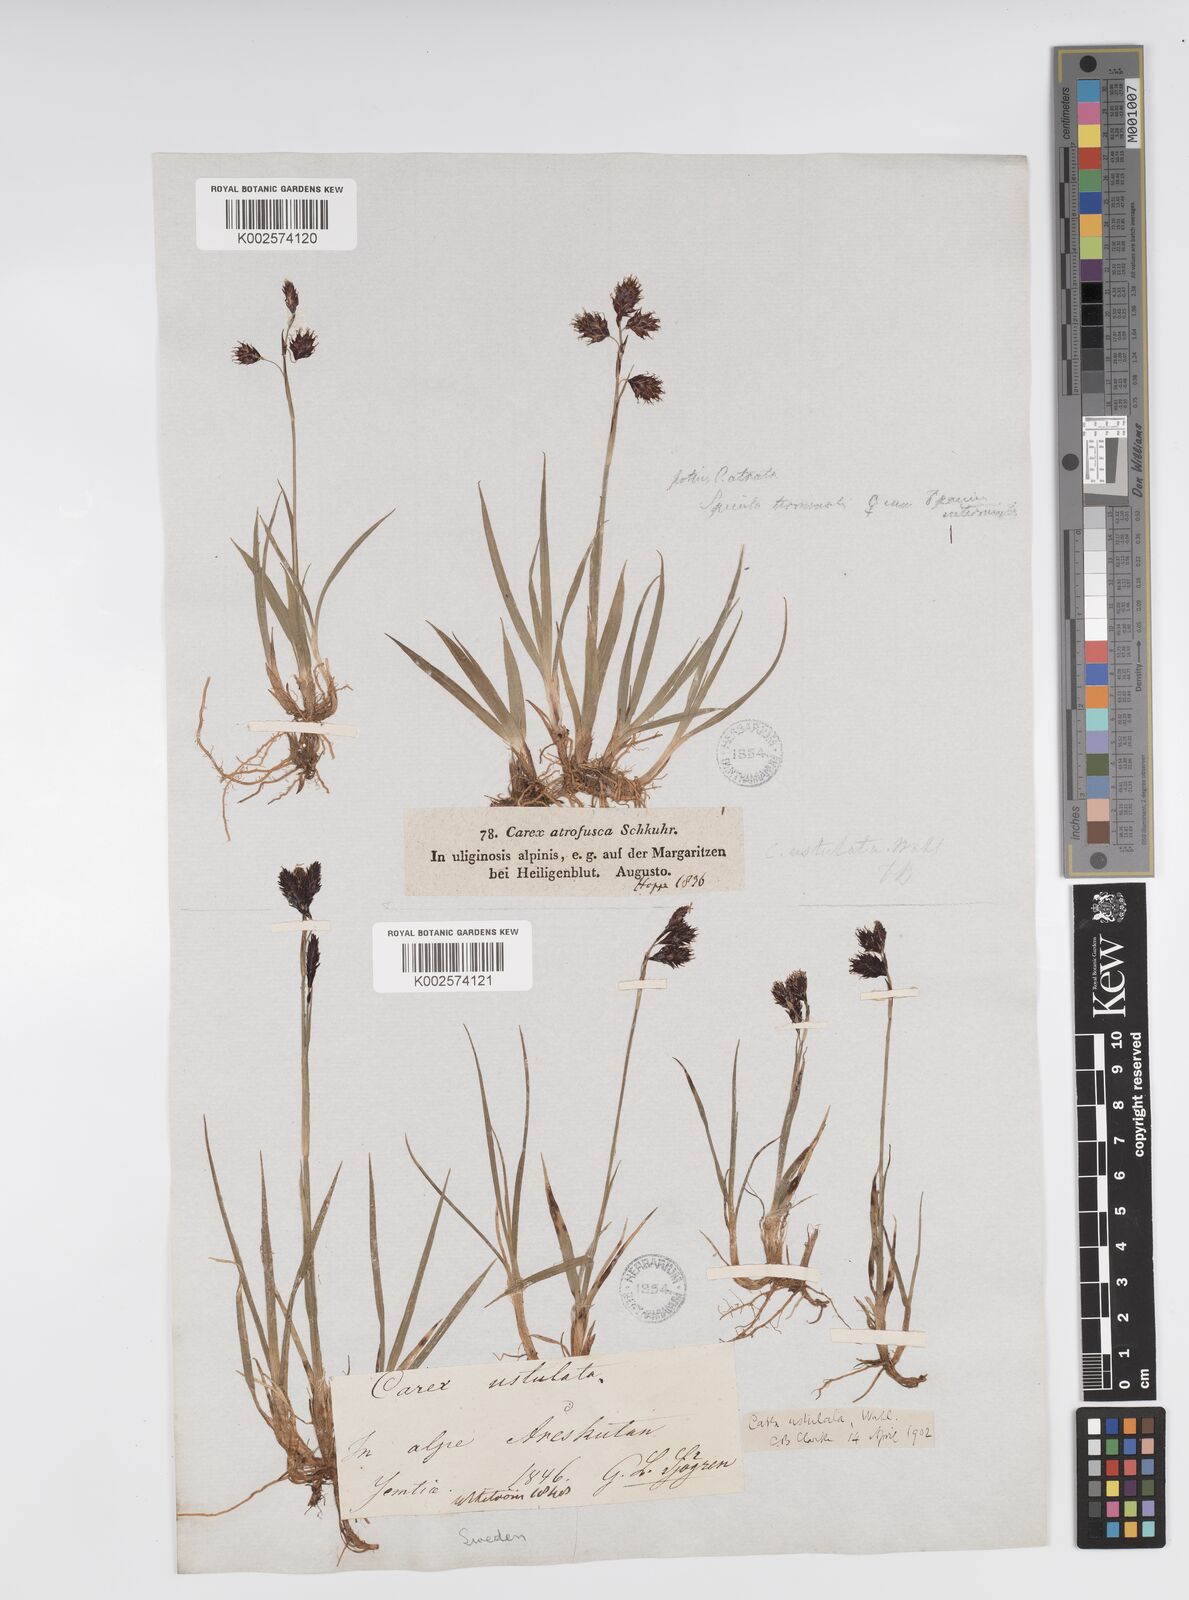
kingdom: Plantae
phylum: Tracheophyta
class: Liliopsida
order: Poales
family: Cyperaceae
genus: Carex
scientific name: Carex atrofusca
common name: Scorched alpine-sedge
